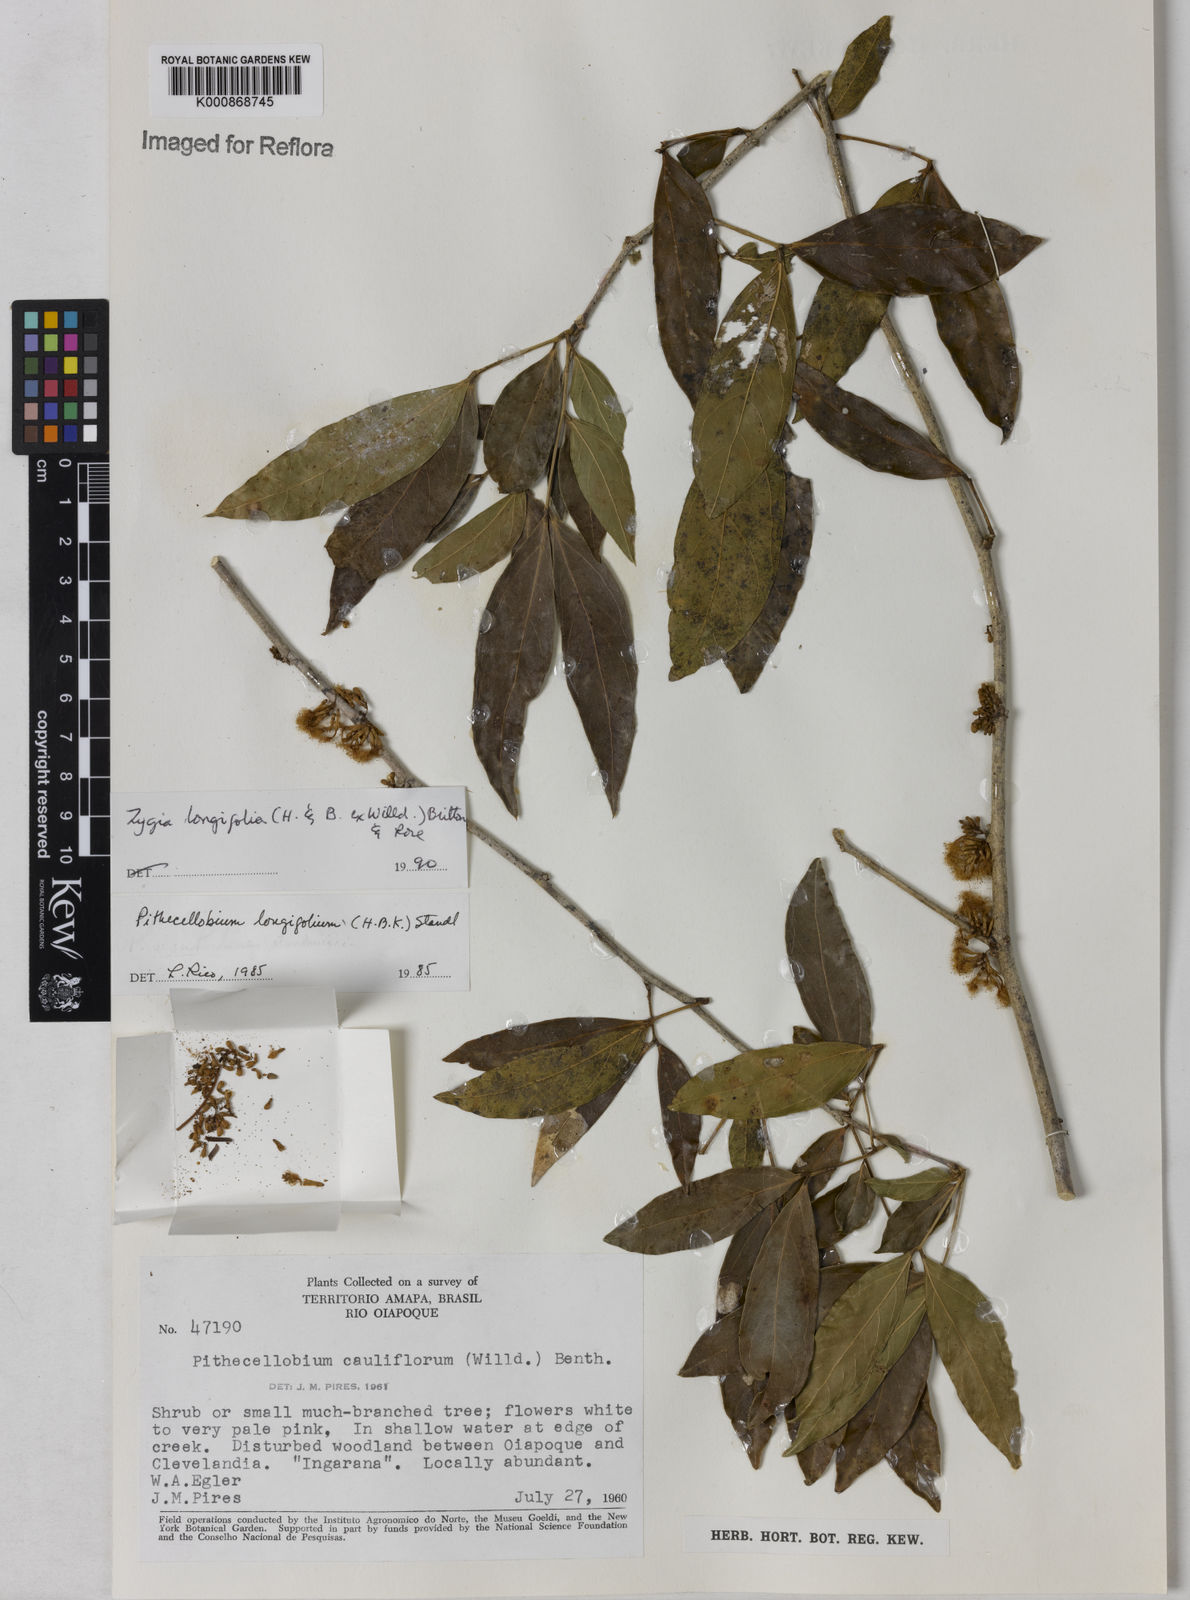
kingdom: Plantae
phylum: Tracheophyta
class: Magnoliopsida
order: Fabales
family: Fabaceae
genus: Zygia
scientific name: Zygia longifolia
